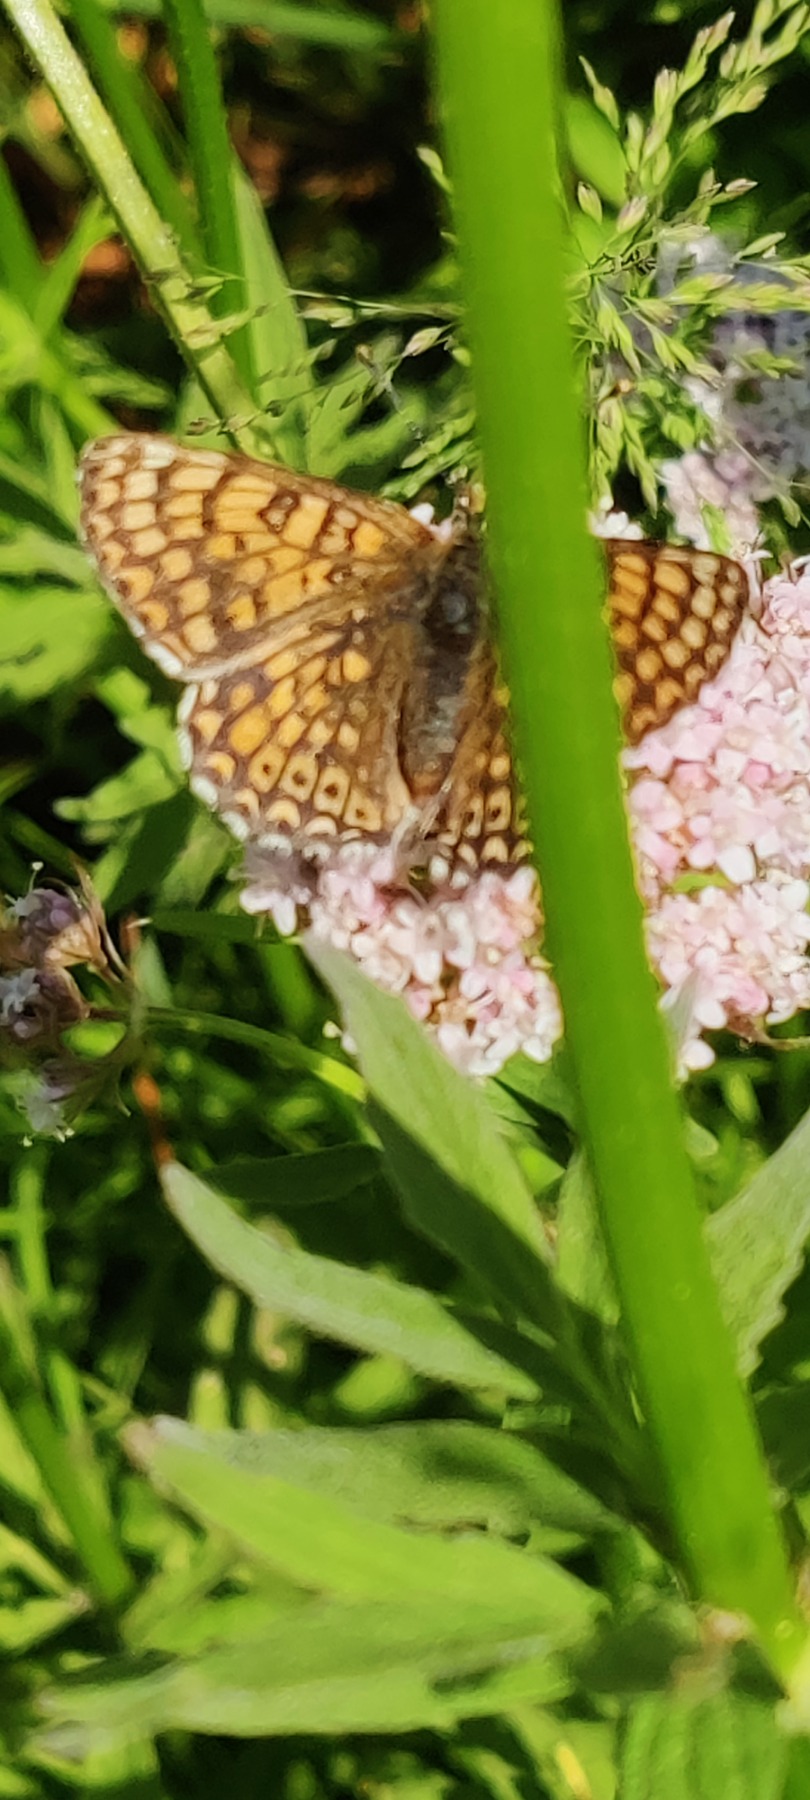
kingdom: Animalia
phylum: Arthropoda
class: Insecta
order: Lepidoptera
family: Nymphalidae
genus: Melitaea
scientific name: Melitaea cinxia
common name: Okkergul pletvinge
